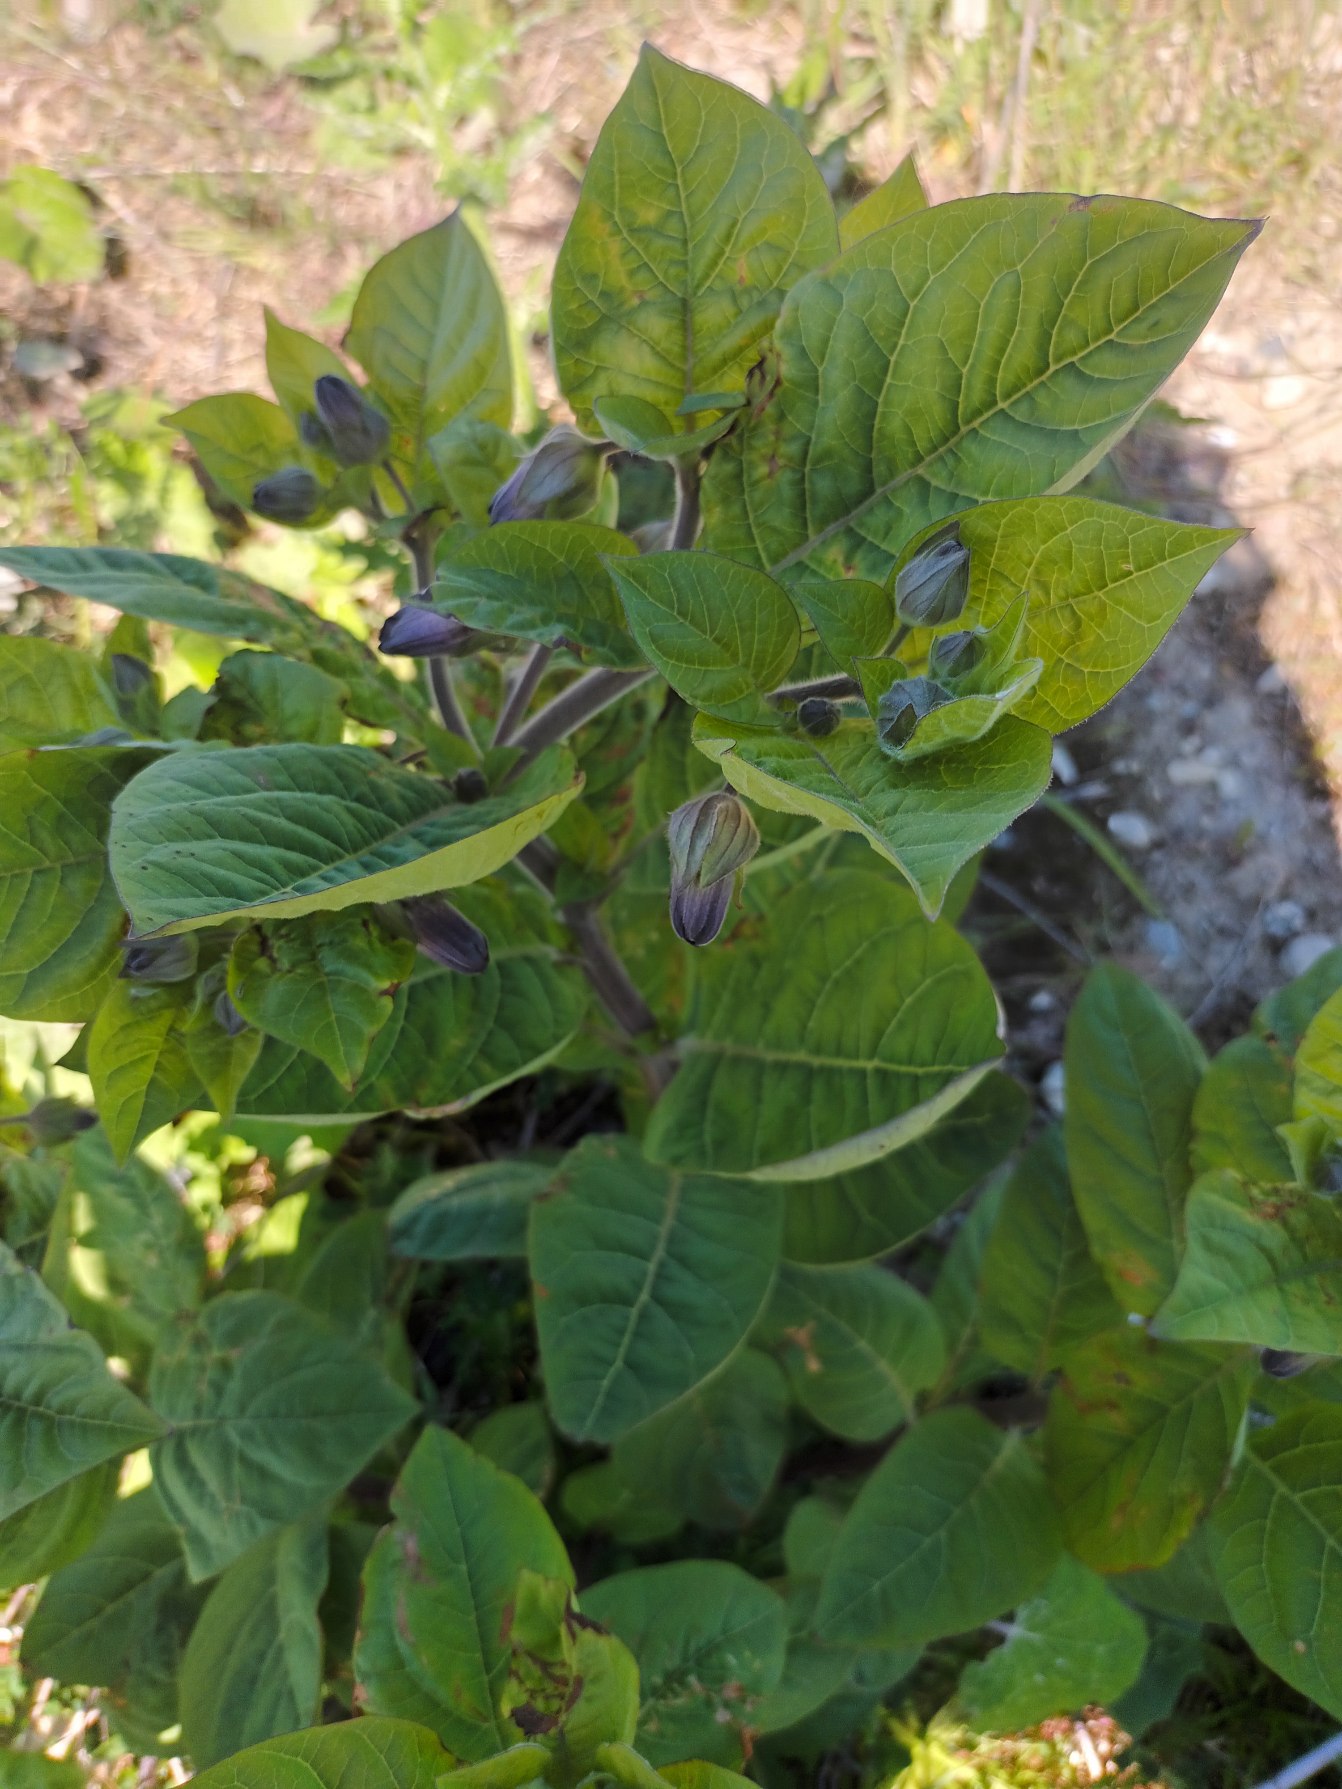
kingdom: Plantae
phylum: Tracheophyta
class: Magnoliopsida
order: Solanales
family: Solanaceae
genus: Atropa
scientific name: Atropa belladonna
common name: Galnebær
